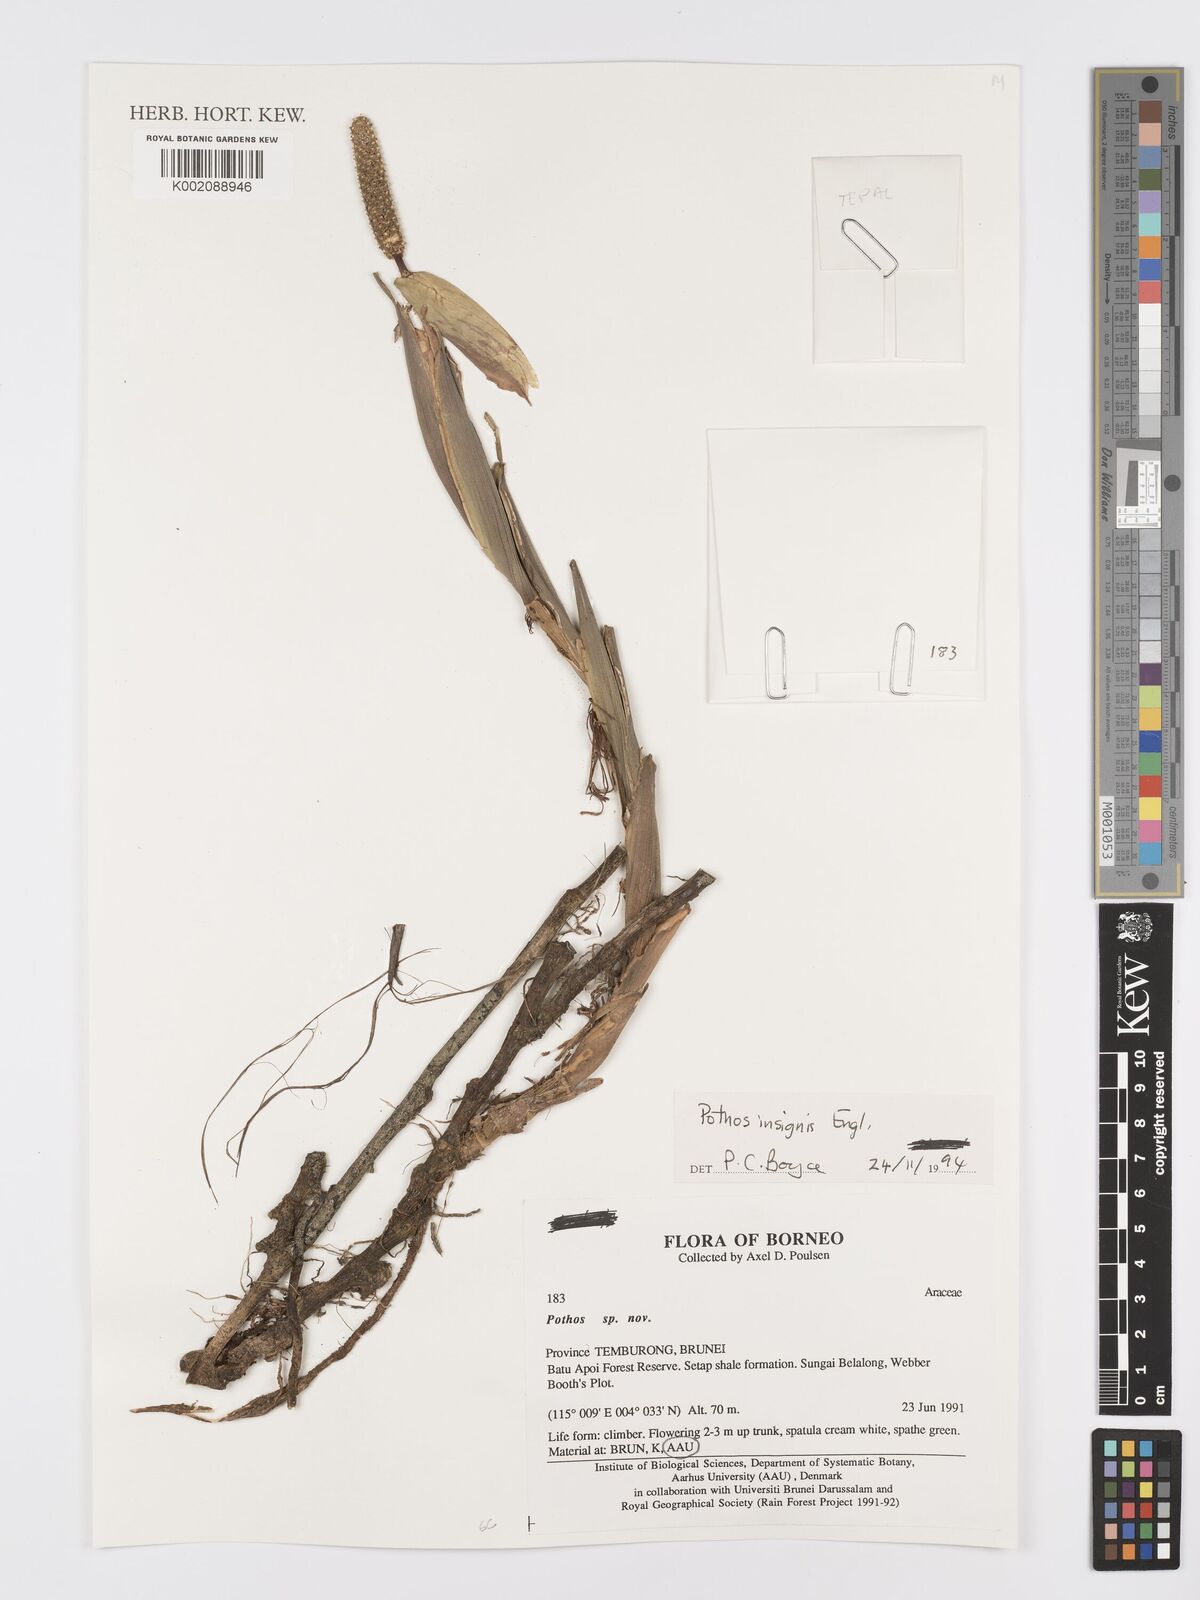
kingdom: Plantae
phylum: Tracheophyta
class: Liliopsida
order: Alismatales
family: Araceae
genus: Pothos
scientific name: Pothos insignis
